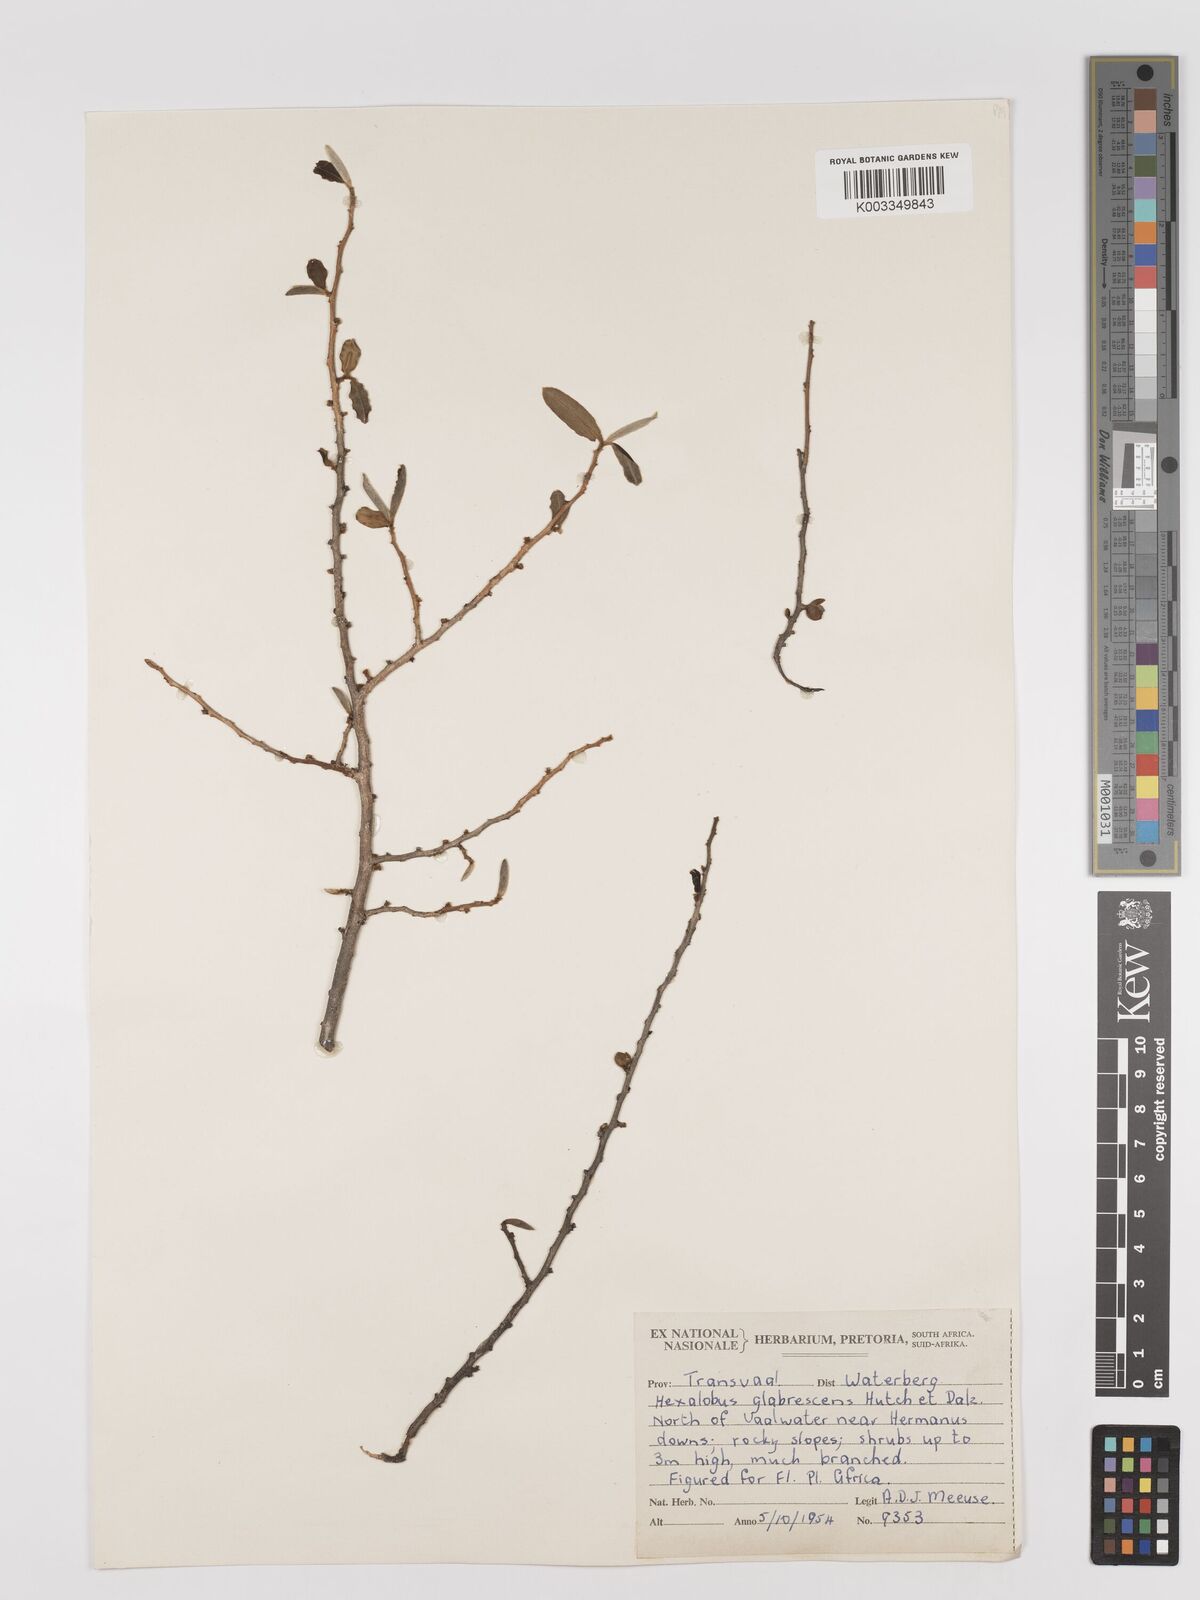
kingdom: Plantae
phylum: Tracheophyta
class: Magnoliopsida
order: Magnoliales
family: Annonaceae
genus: Hexalobus
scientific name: Hexalobus monopetalus
